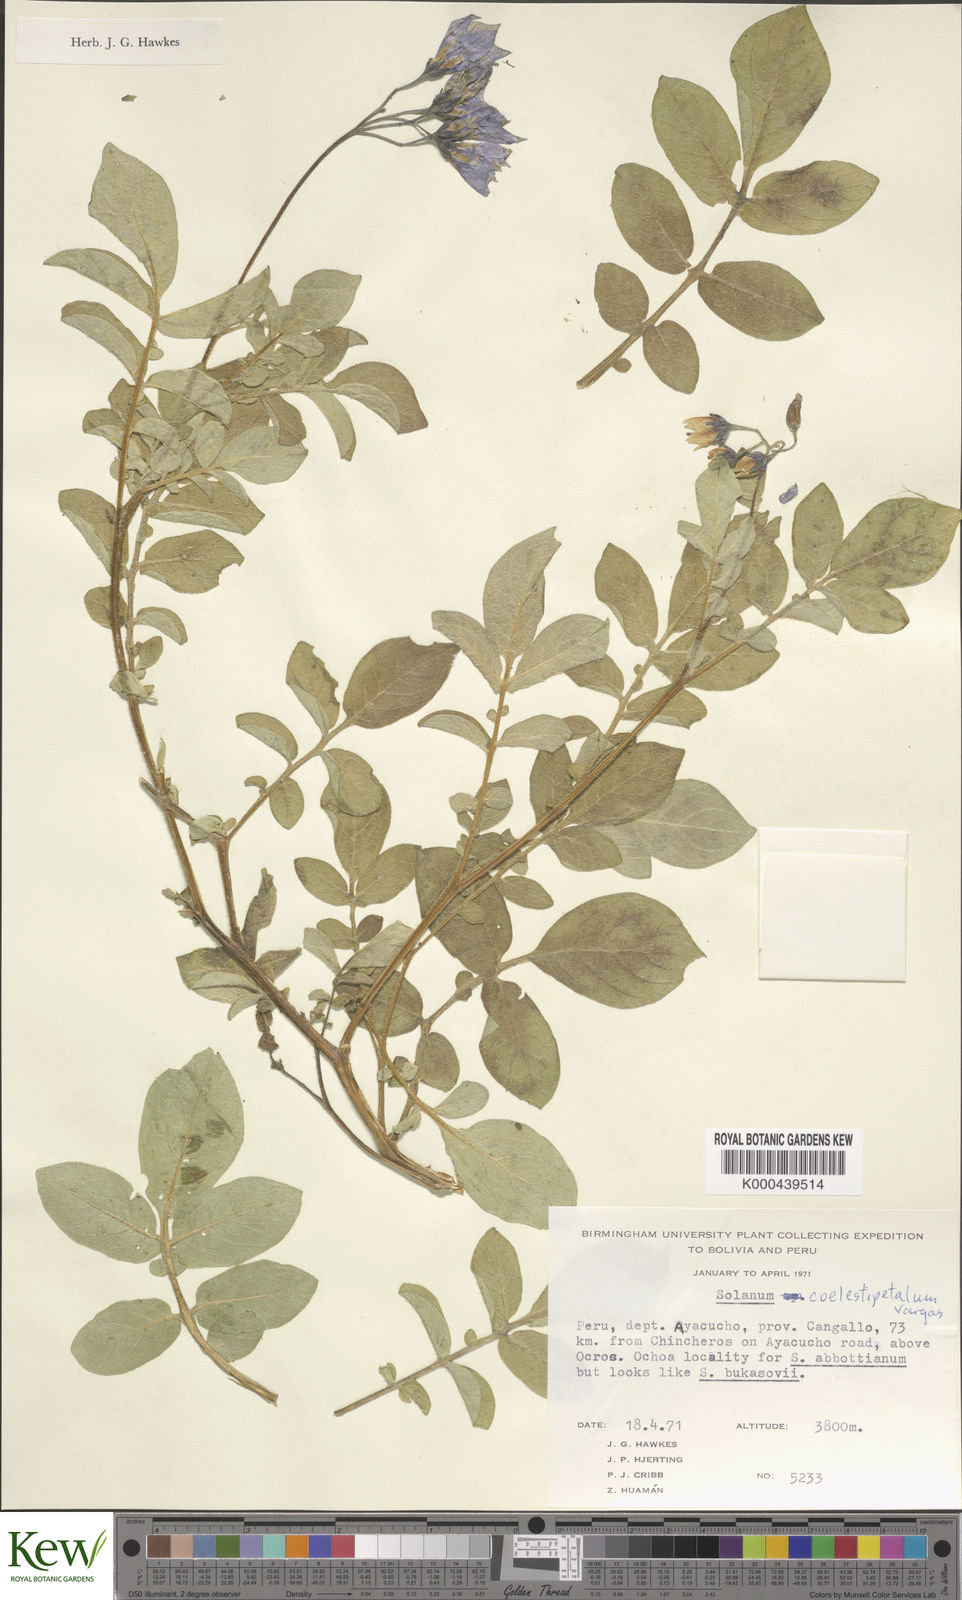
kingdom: Plantae
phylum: Tracheophyta
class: Magnoliopsida
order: Solanales
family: Solanaceae
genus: Solanum
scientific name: Solanum candolleanum
